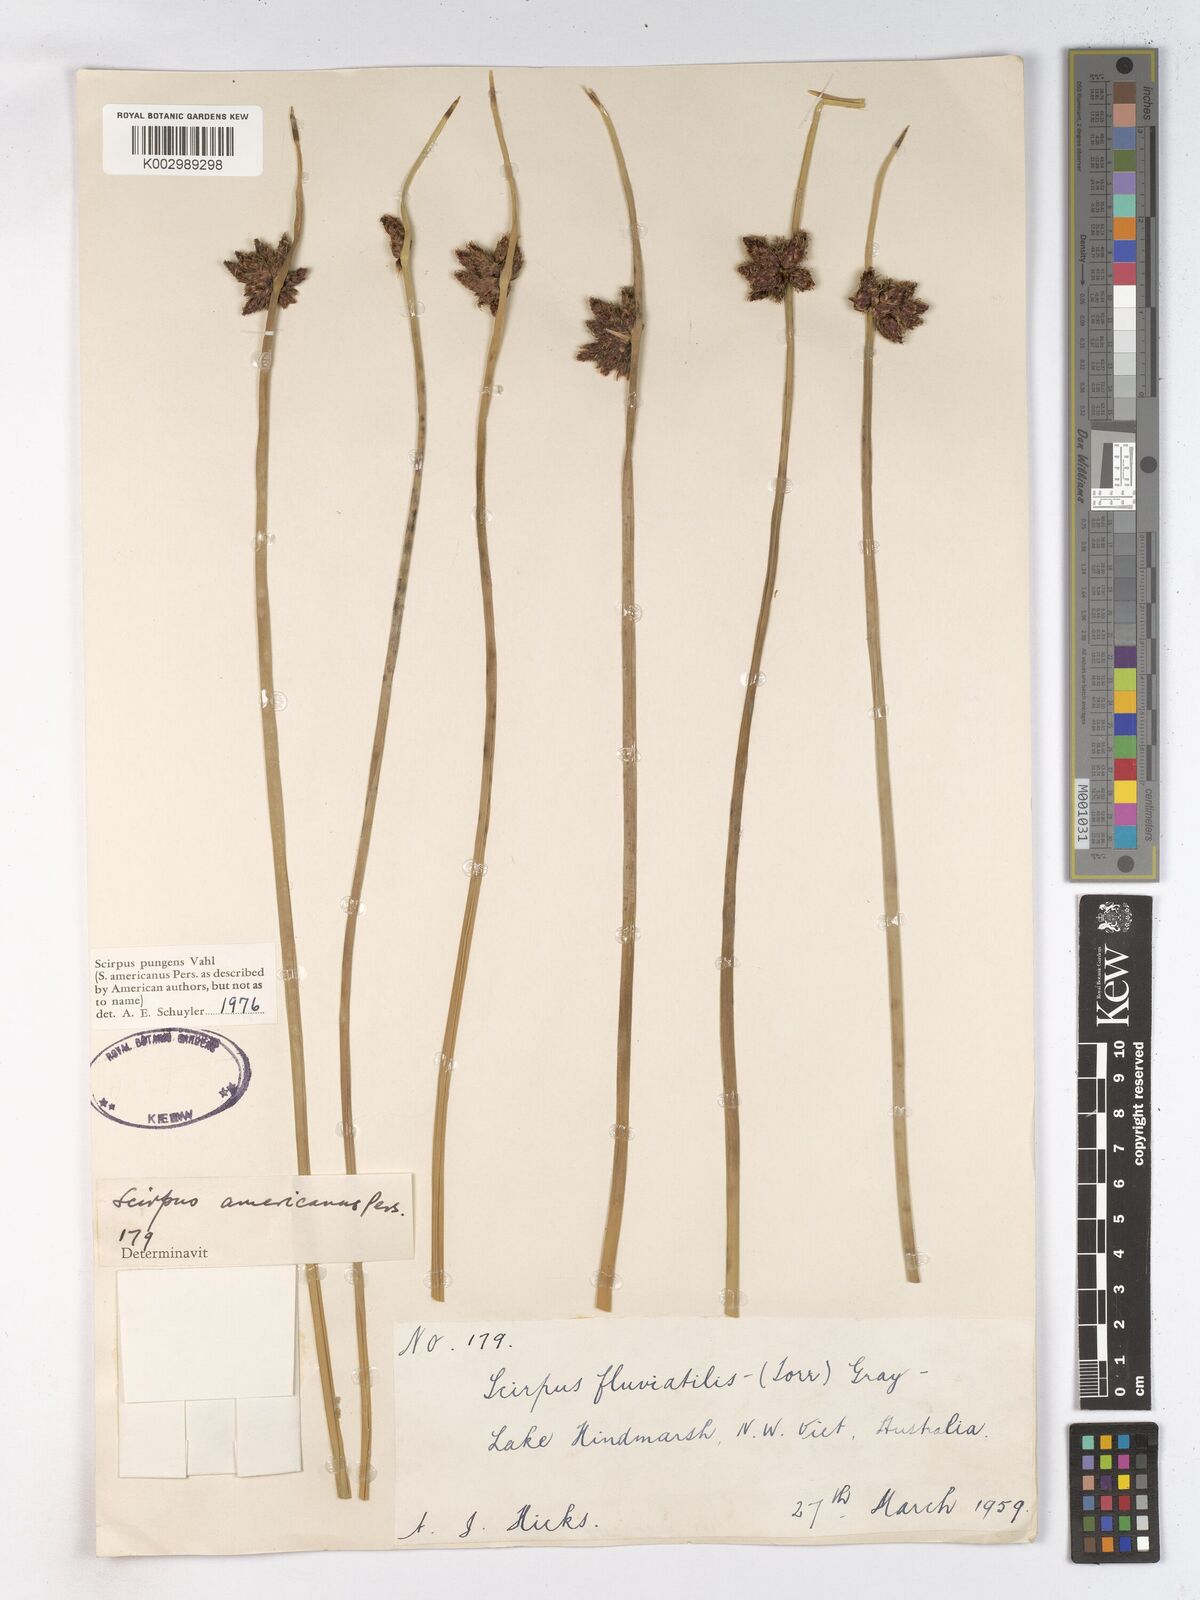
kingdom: Plantae
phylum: Tracheophyta
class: Liliopsida
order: Poales
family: Cyperaceae
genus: Schoenoplectus
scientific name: Schoenoplectus pungens
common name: Sharp club-rush
